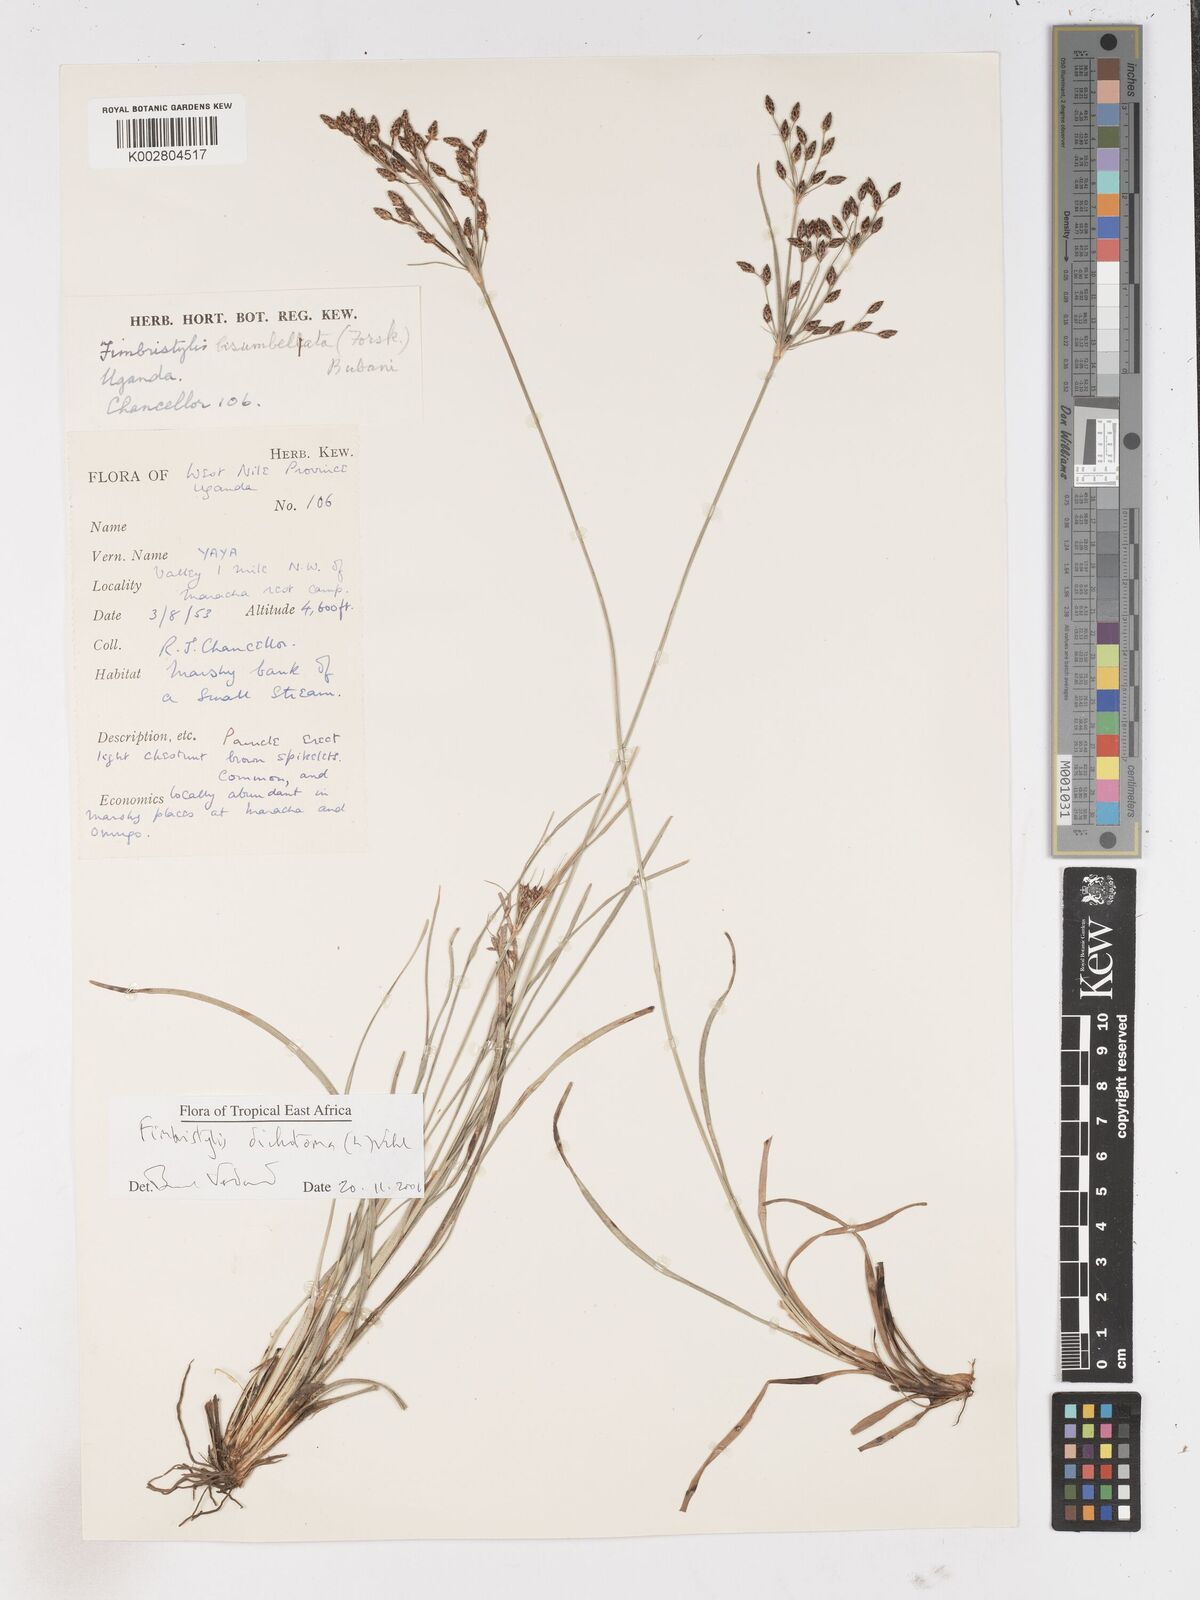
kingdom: Plantae
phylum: Tracheophyta
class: Liliopsida
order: Poales
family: Cyperaceae
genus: Fimbristylis
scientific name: Fimbristylis dichotoma
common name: Forked fimbry
